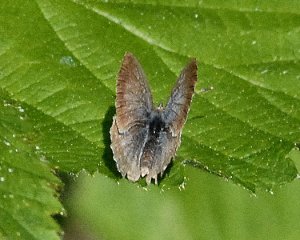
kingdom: Animalia
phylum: Arthropoda
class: Insecta
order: Lepidoptera
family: Lycaenidae
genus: Celastrina
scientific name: Celastrina ladon
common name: Echo Azure
